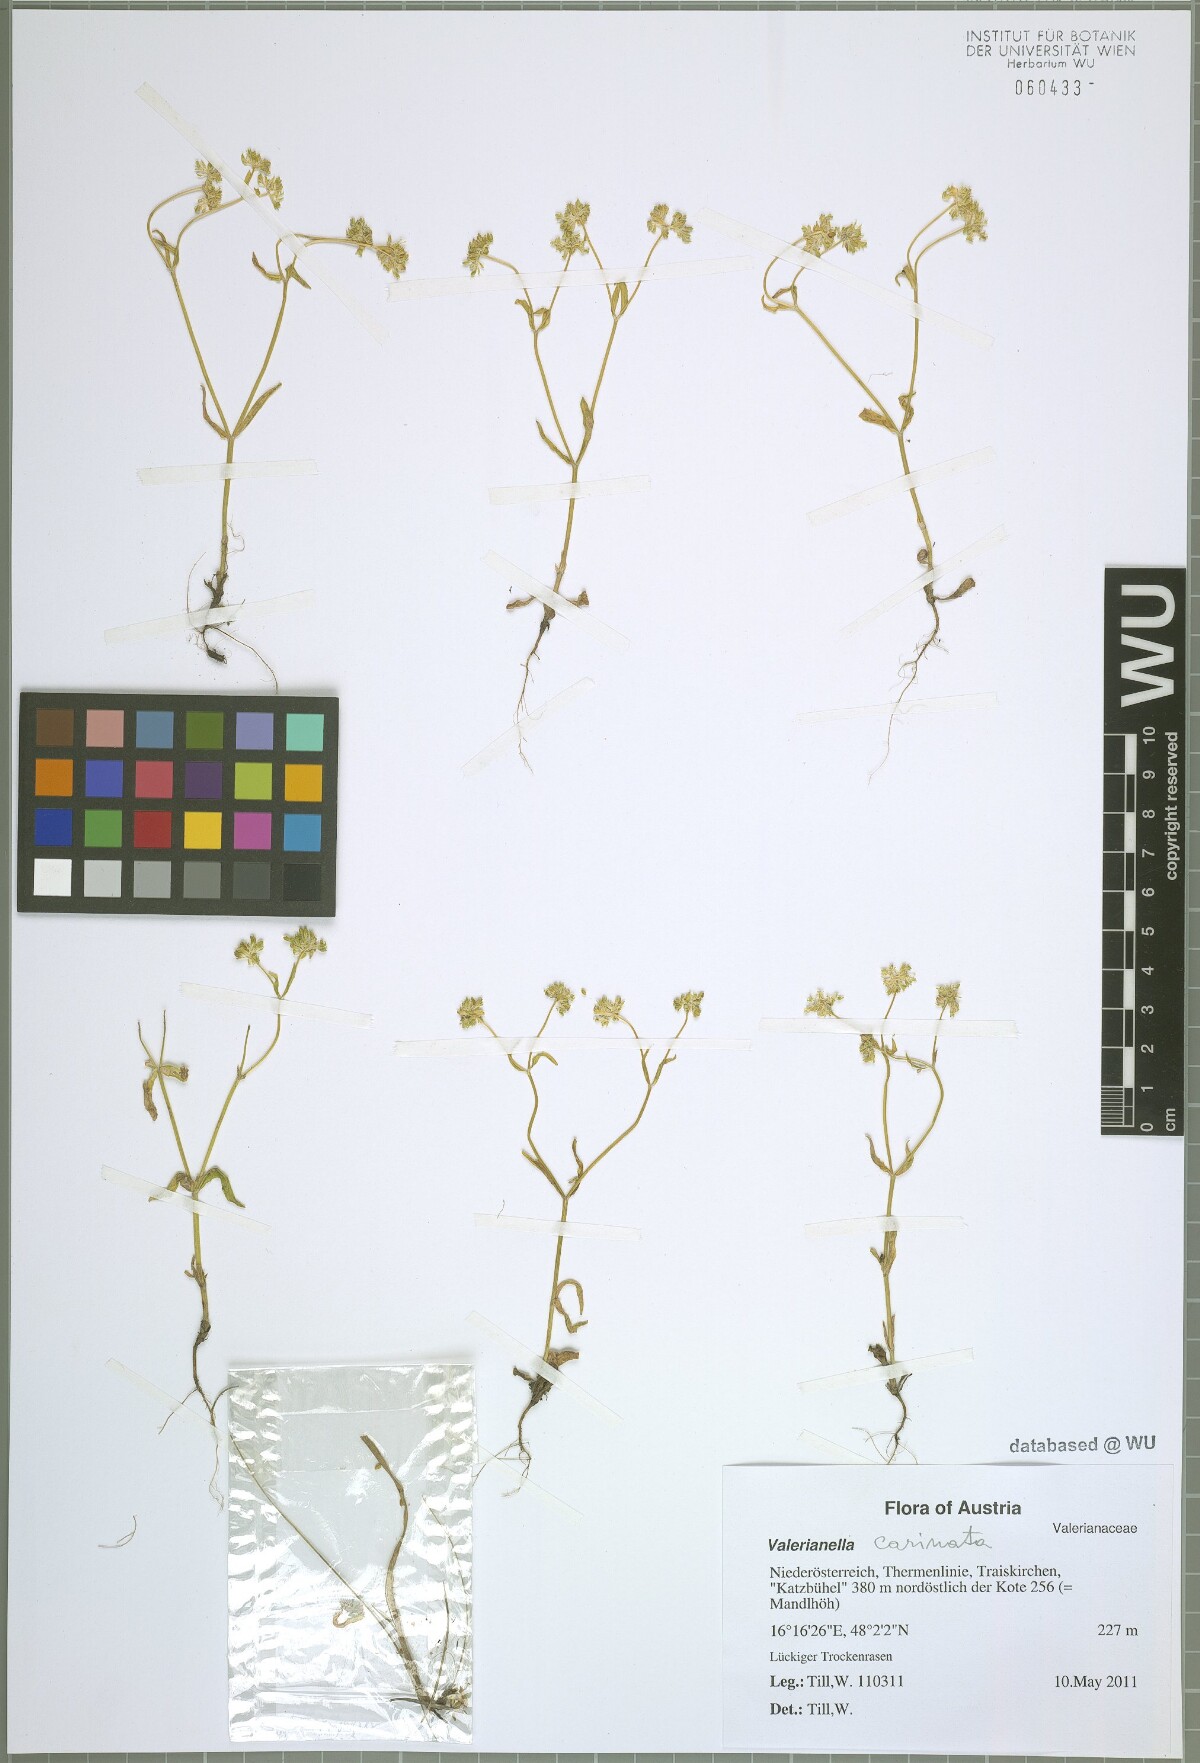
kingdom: Plantae
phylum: Tracheophyta
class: Magnoliopsida
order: Dipsacales
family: Caprifoliaceae
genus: Valerianella
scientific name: Valerianella carinata
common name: Keeled-fruited cornsalad
